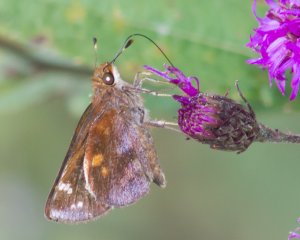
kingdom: Animalia
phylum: Arthropoda
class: Insecta
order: Lepidoptera
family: Hesperiidae
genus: Lon
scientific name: Lon zabulon
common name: Zabulon Skipper
